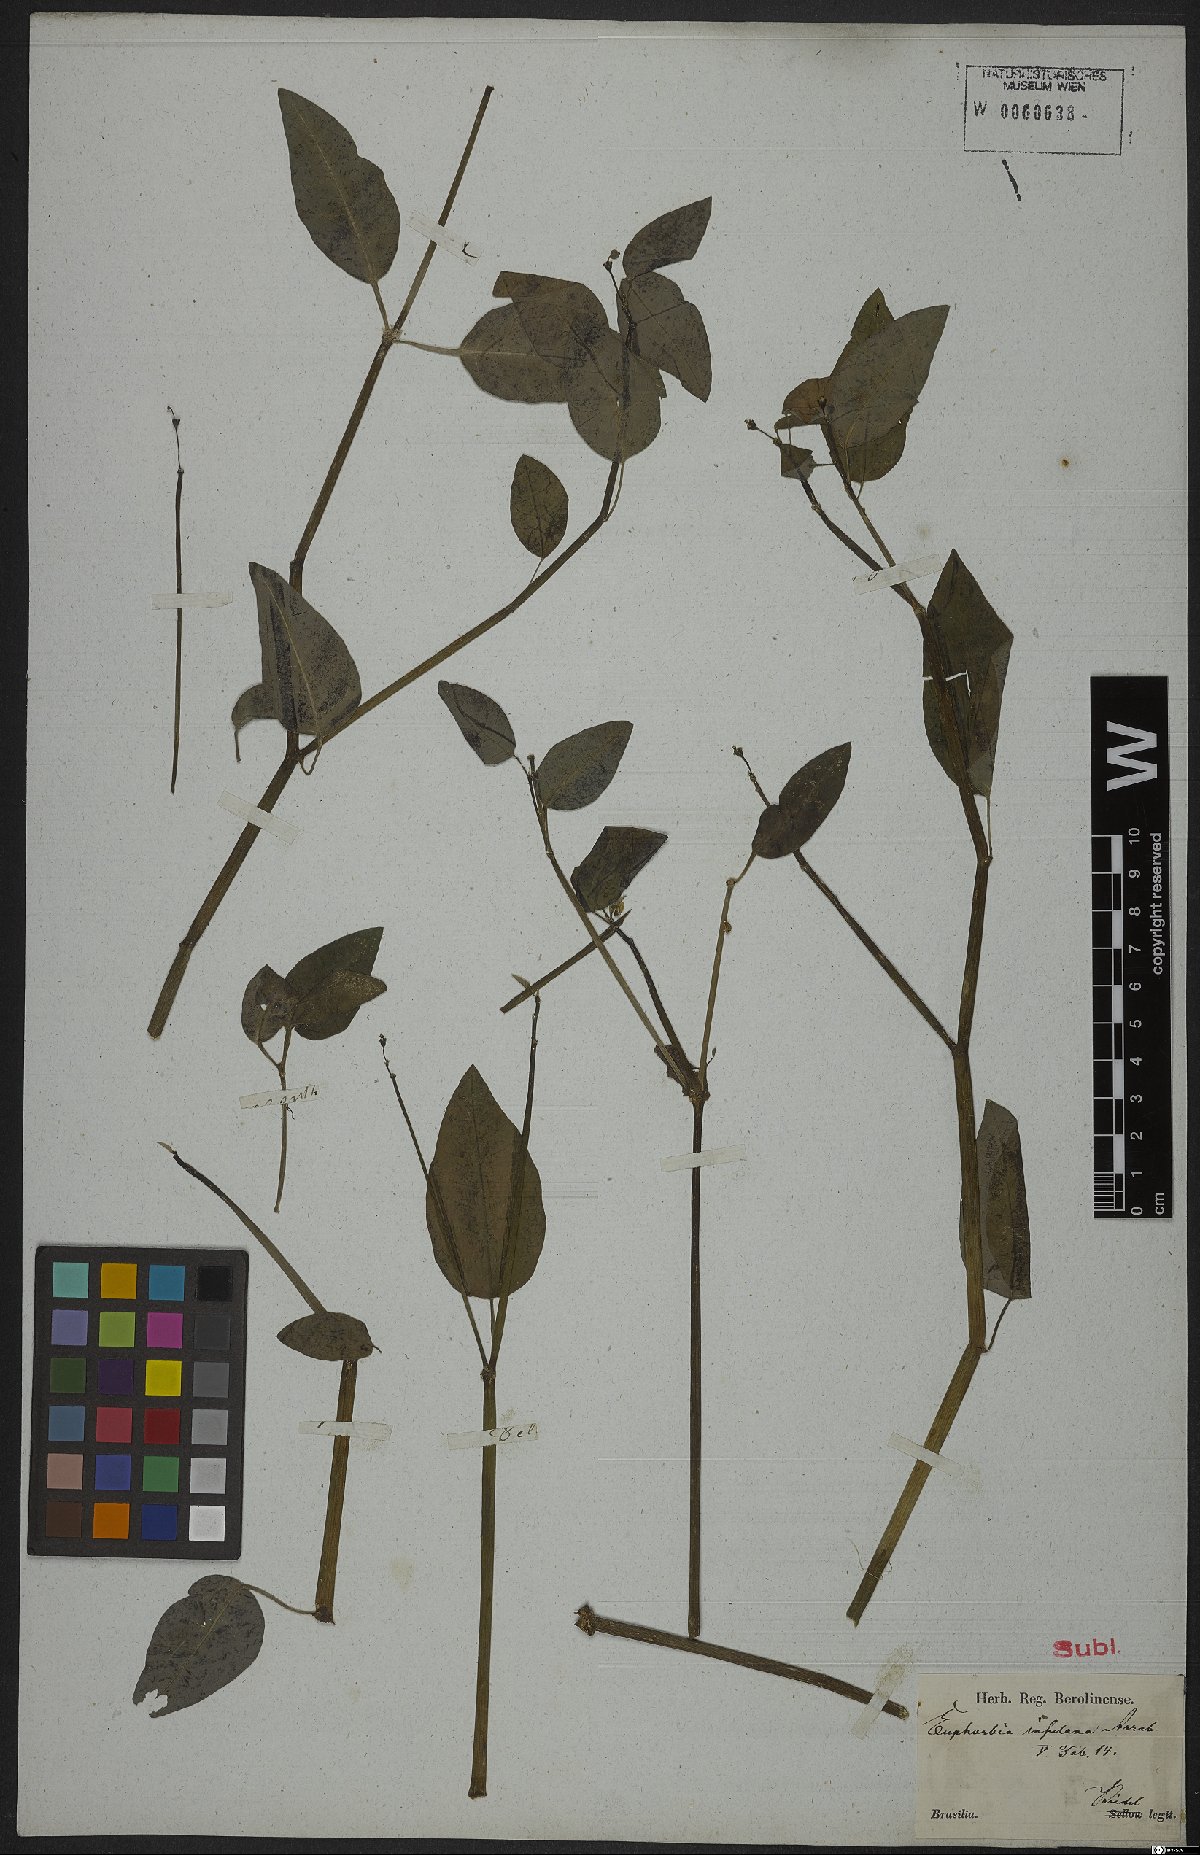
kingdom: Plantae
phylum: Tracheophyta
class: Magnoliopsida
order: Malpighiales
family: Euphorbiaceae
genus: Euphorbia
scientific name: Euphorbia glanduligera
